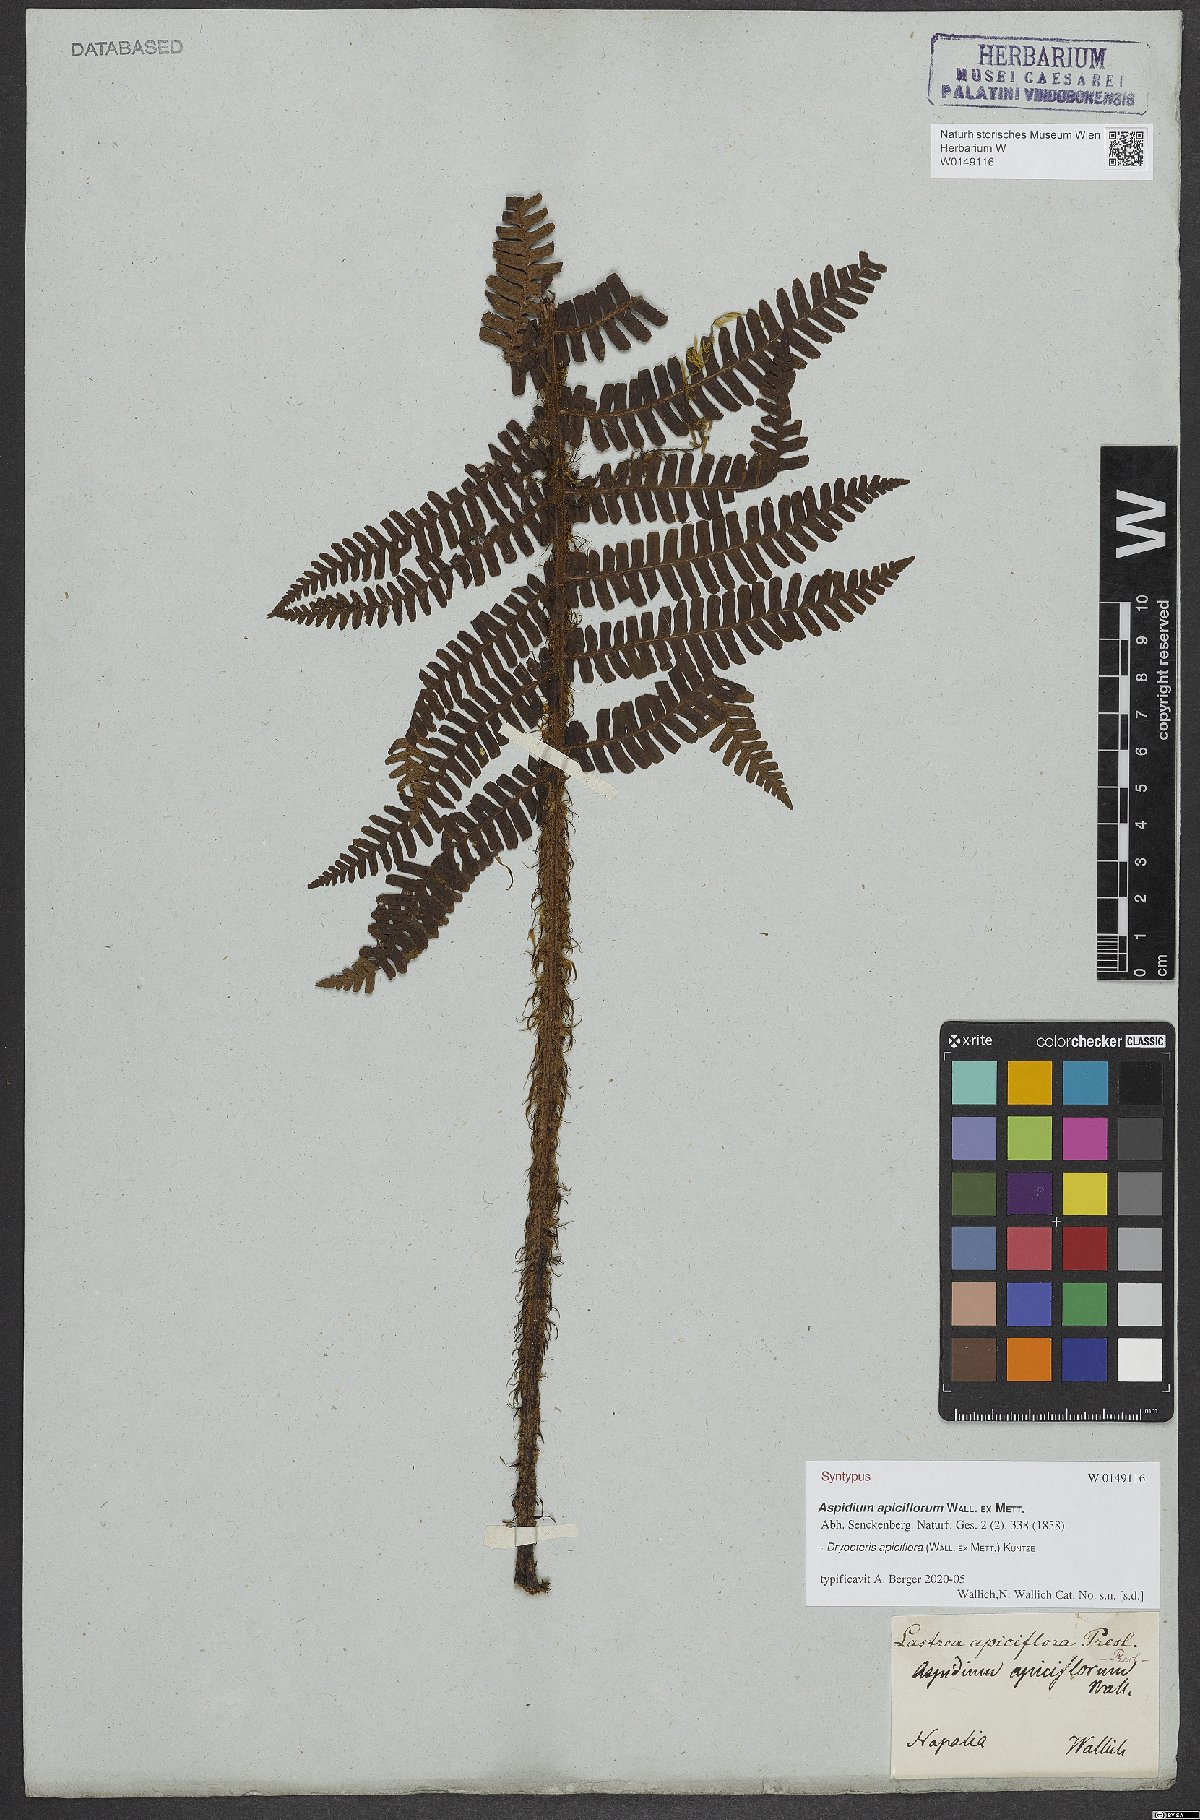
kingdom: Plantae
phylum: Tracheophyta
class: Polypodiopsida
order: Polypodiales
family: Dryopteridaceae
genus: Dryopteris
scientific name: Dryopteris apiciflora
